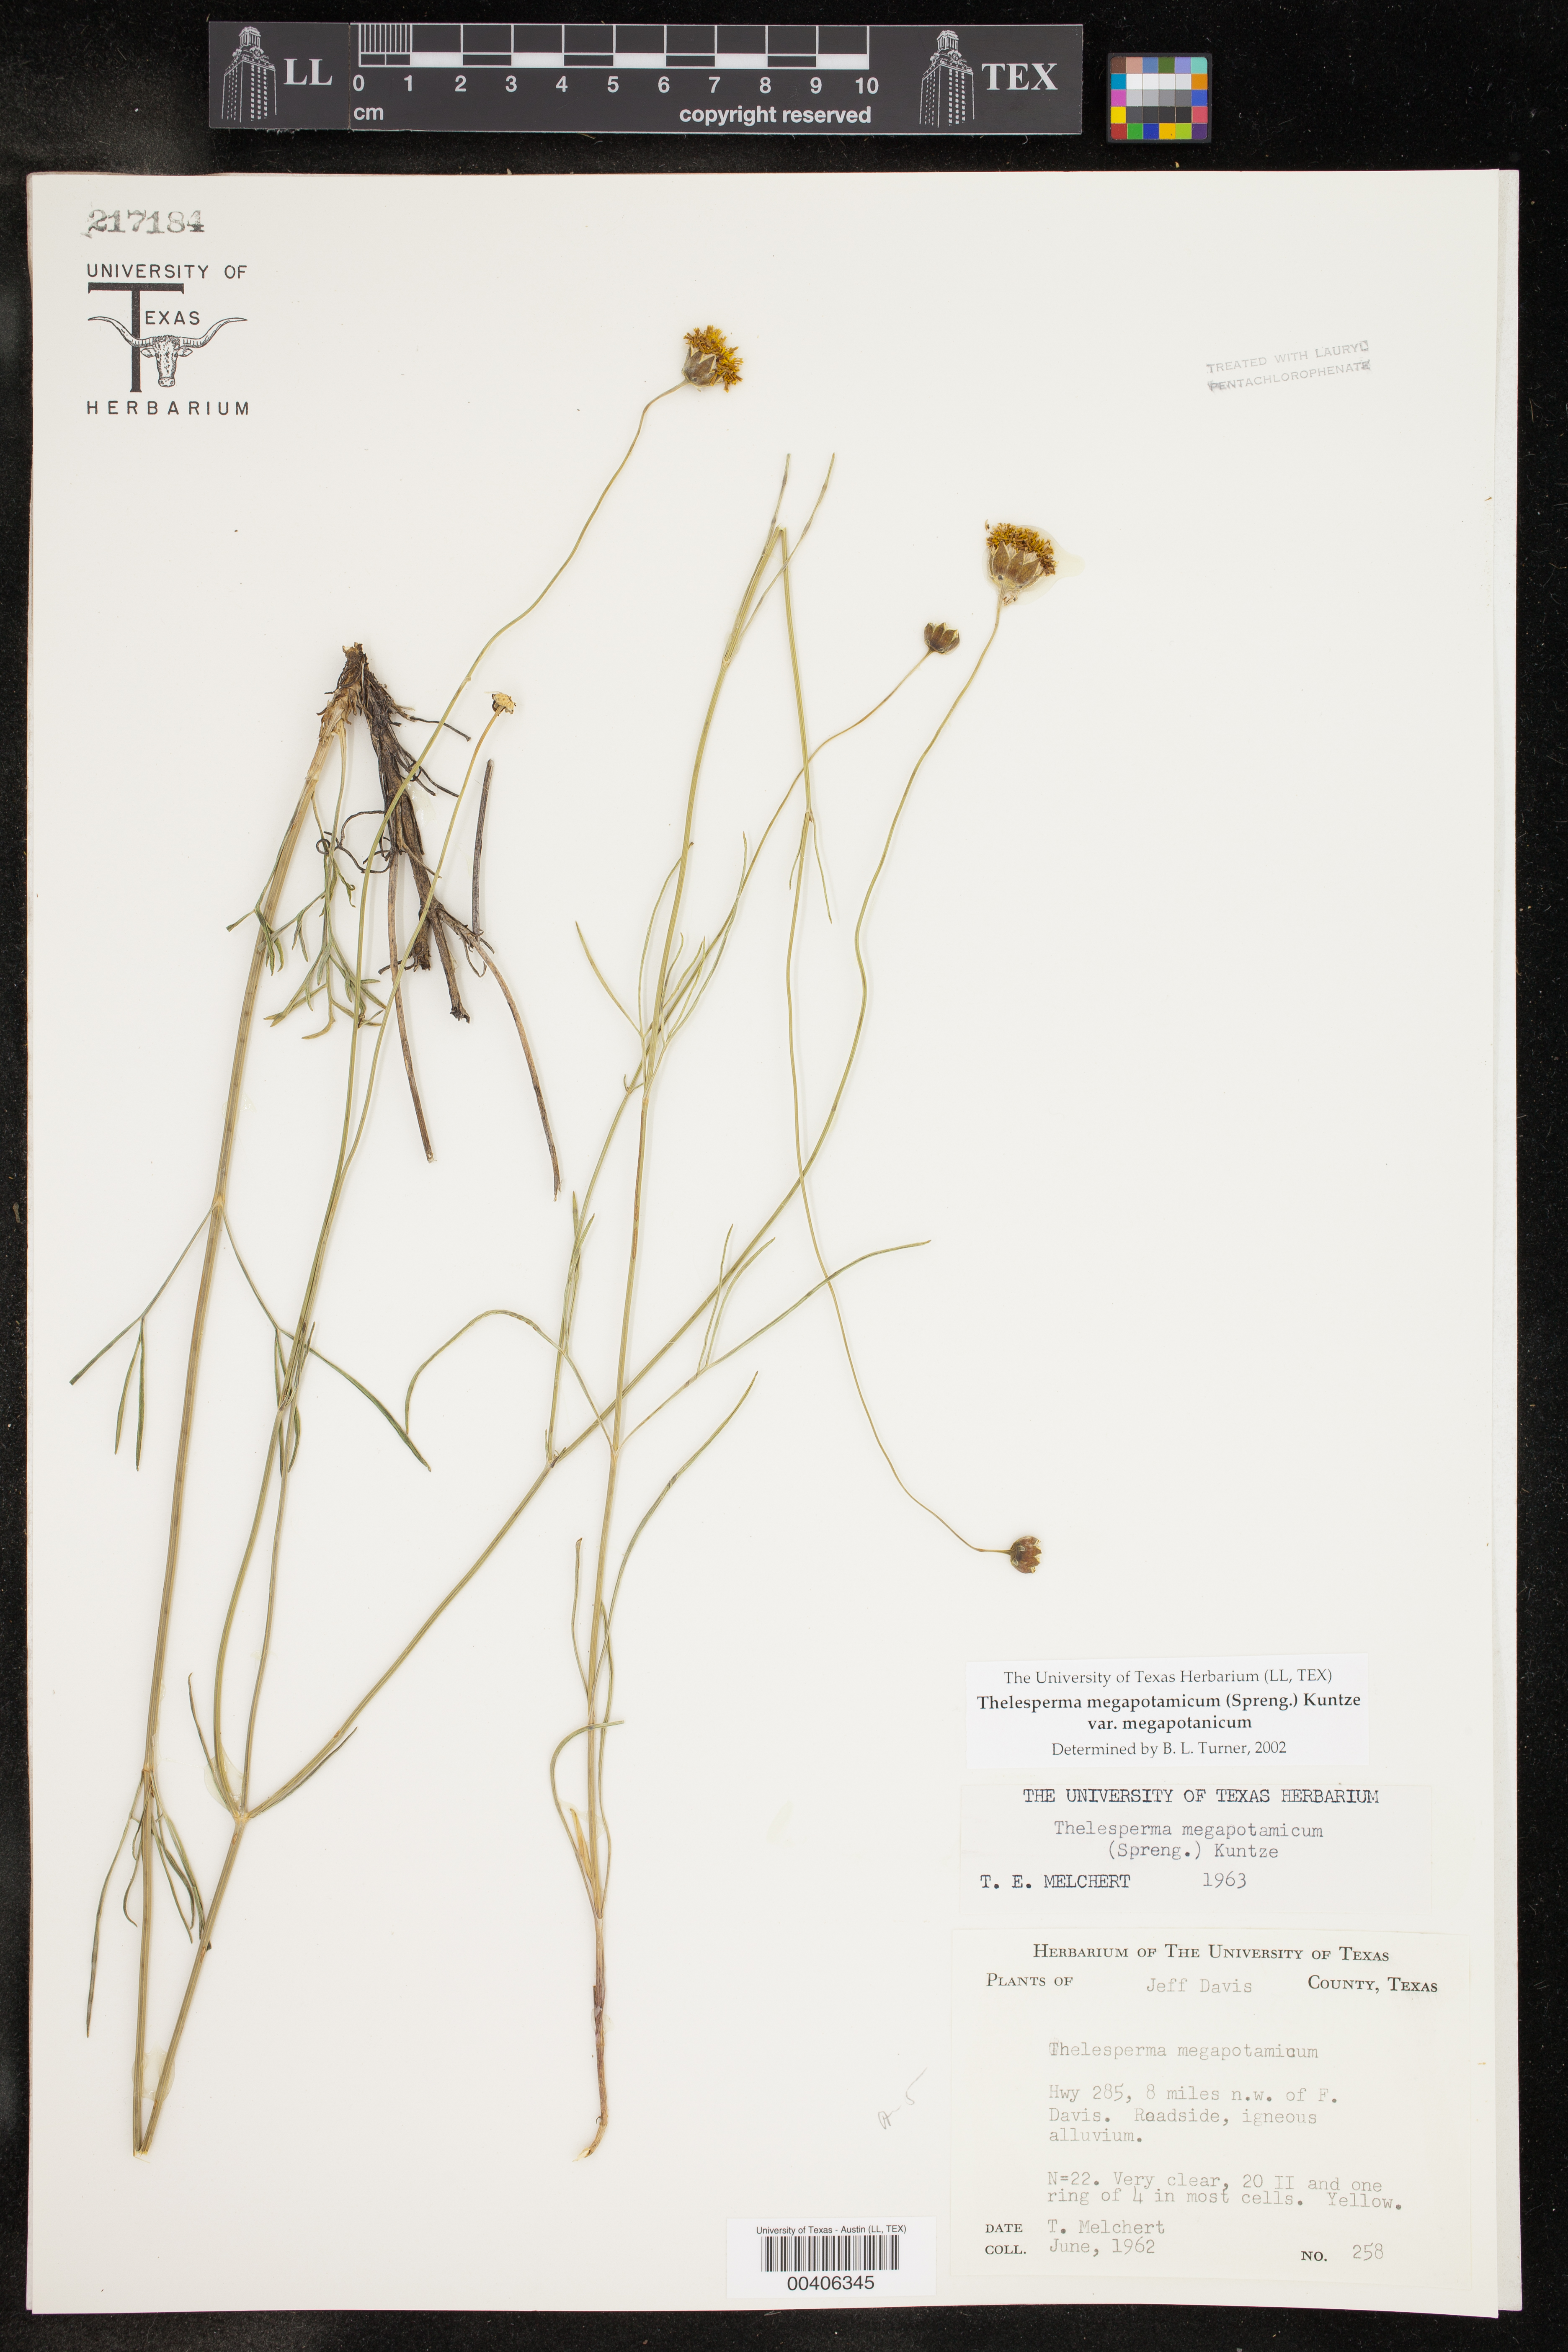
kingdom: Plantae
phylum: Tracheophyta
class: Magnoliopsida
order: Asterales
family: Asteraceae
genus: Thelesperma
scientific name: Thelesperma megapotamicum
